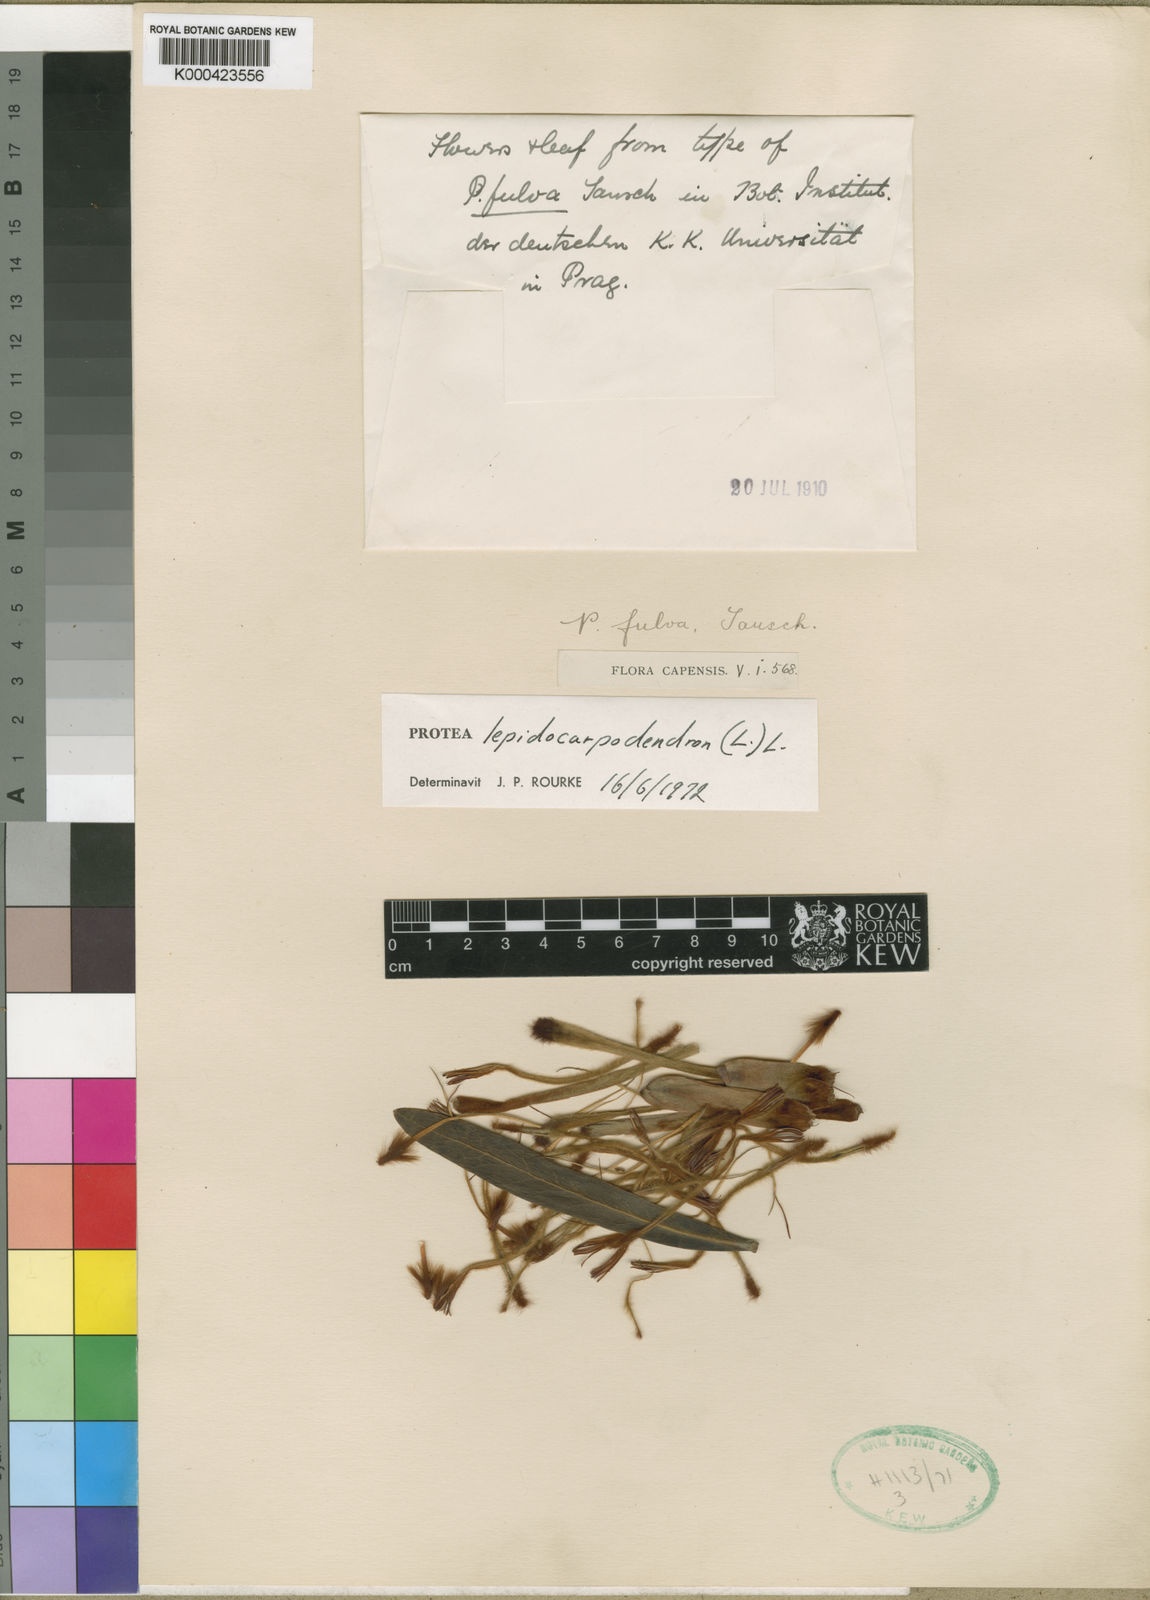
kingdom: Plantae
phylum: Tracheophyta
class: Magnoliopsida
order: Proteales
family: Proteaceae
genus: Protea
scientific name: Protea lepidocarpodendron
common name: Black-bearded protea
